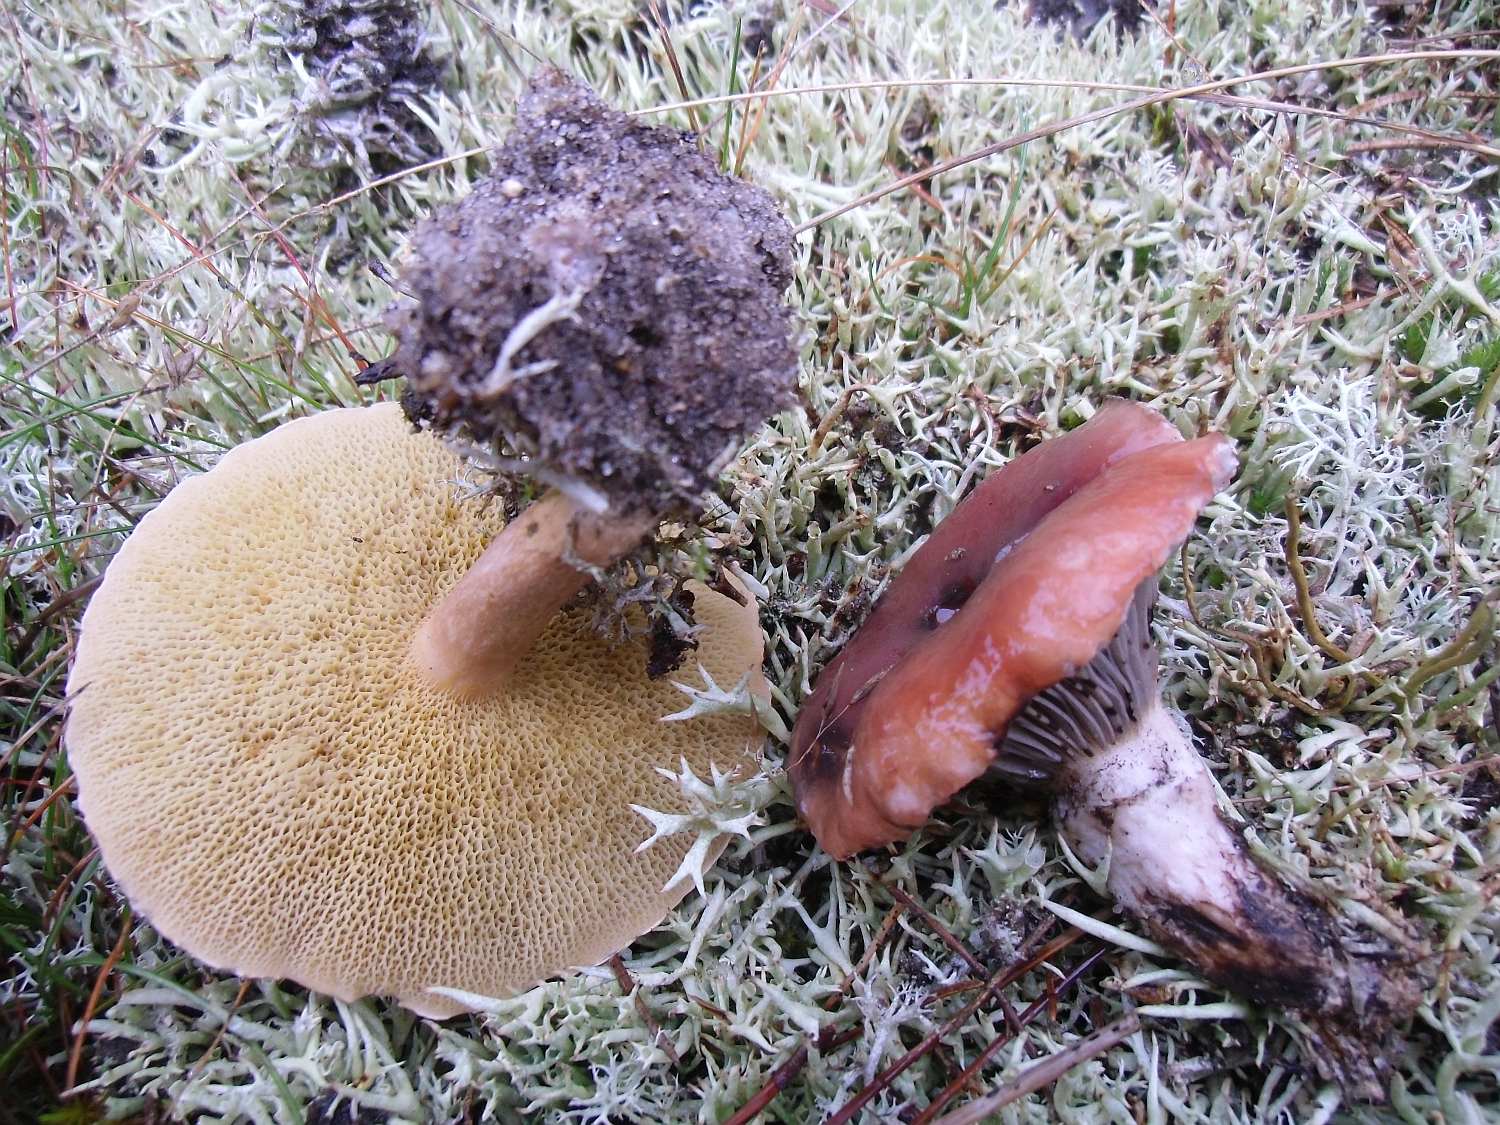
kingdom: Fungi
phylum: Basidiomycota
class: Agaricomycetes
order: Boletales
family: Gomphidiaceae
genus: Gomphidius
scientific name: Gomphidius roseus
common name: rosenrød slimslør
